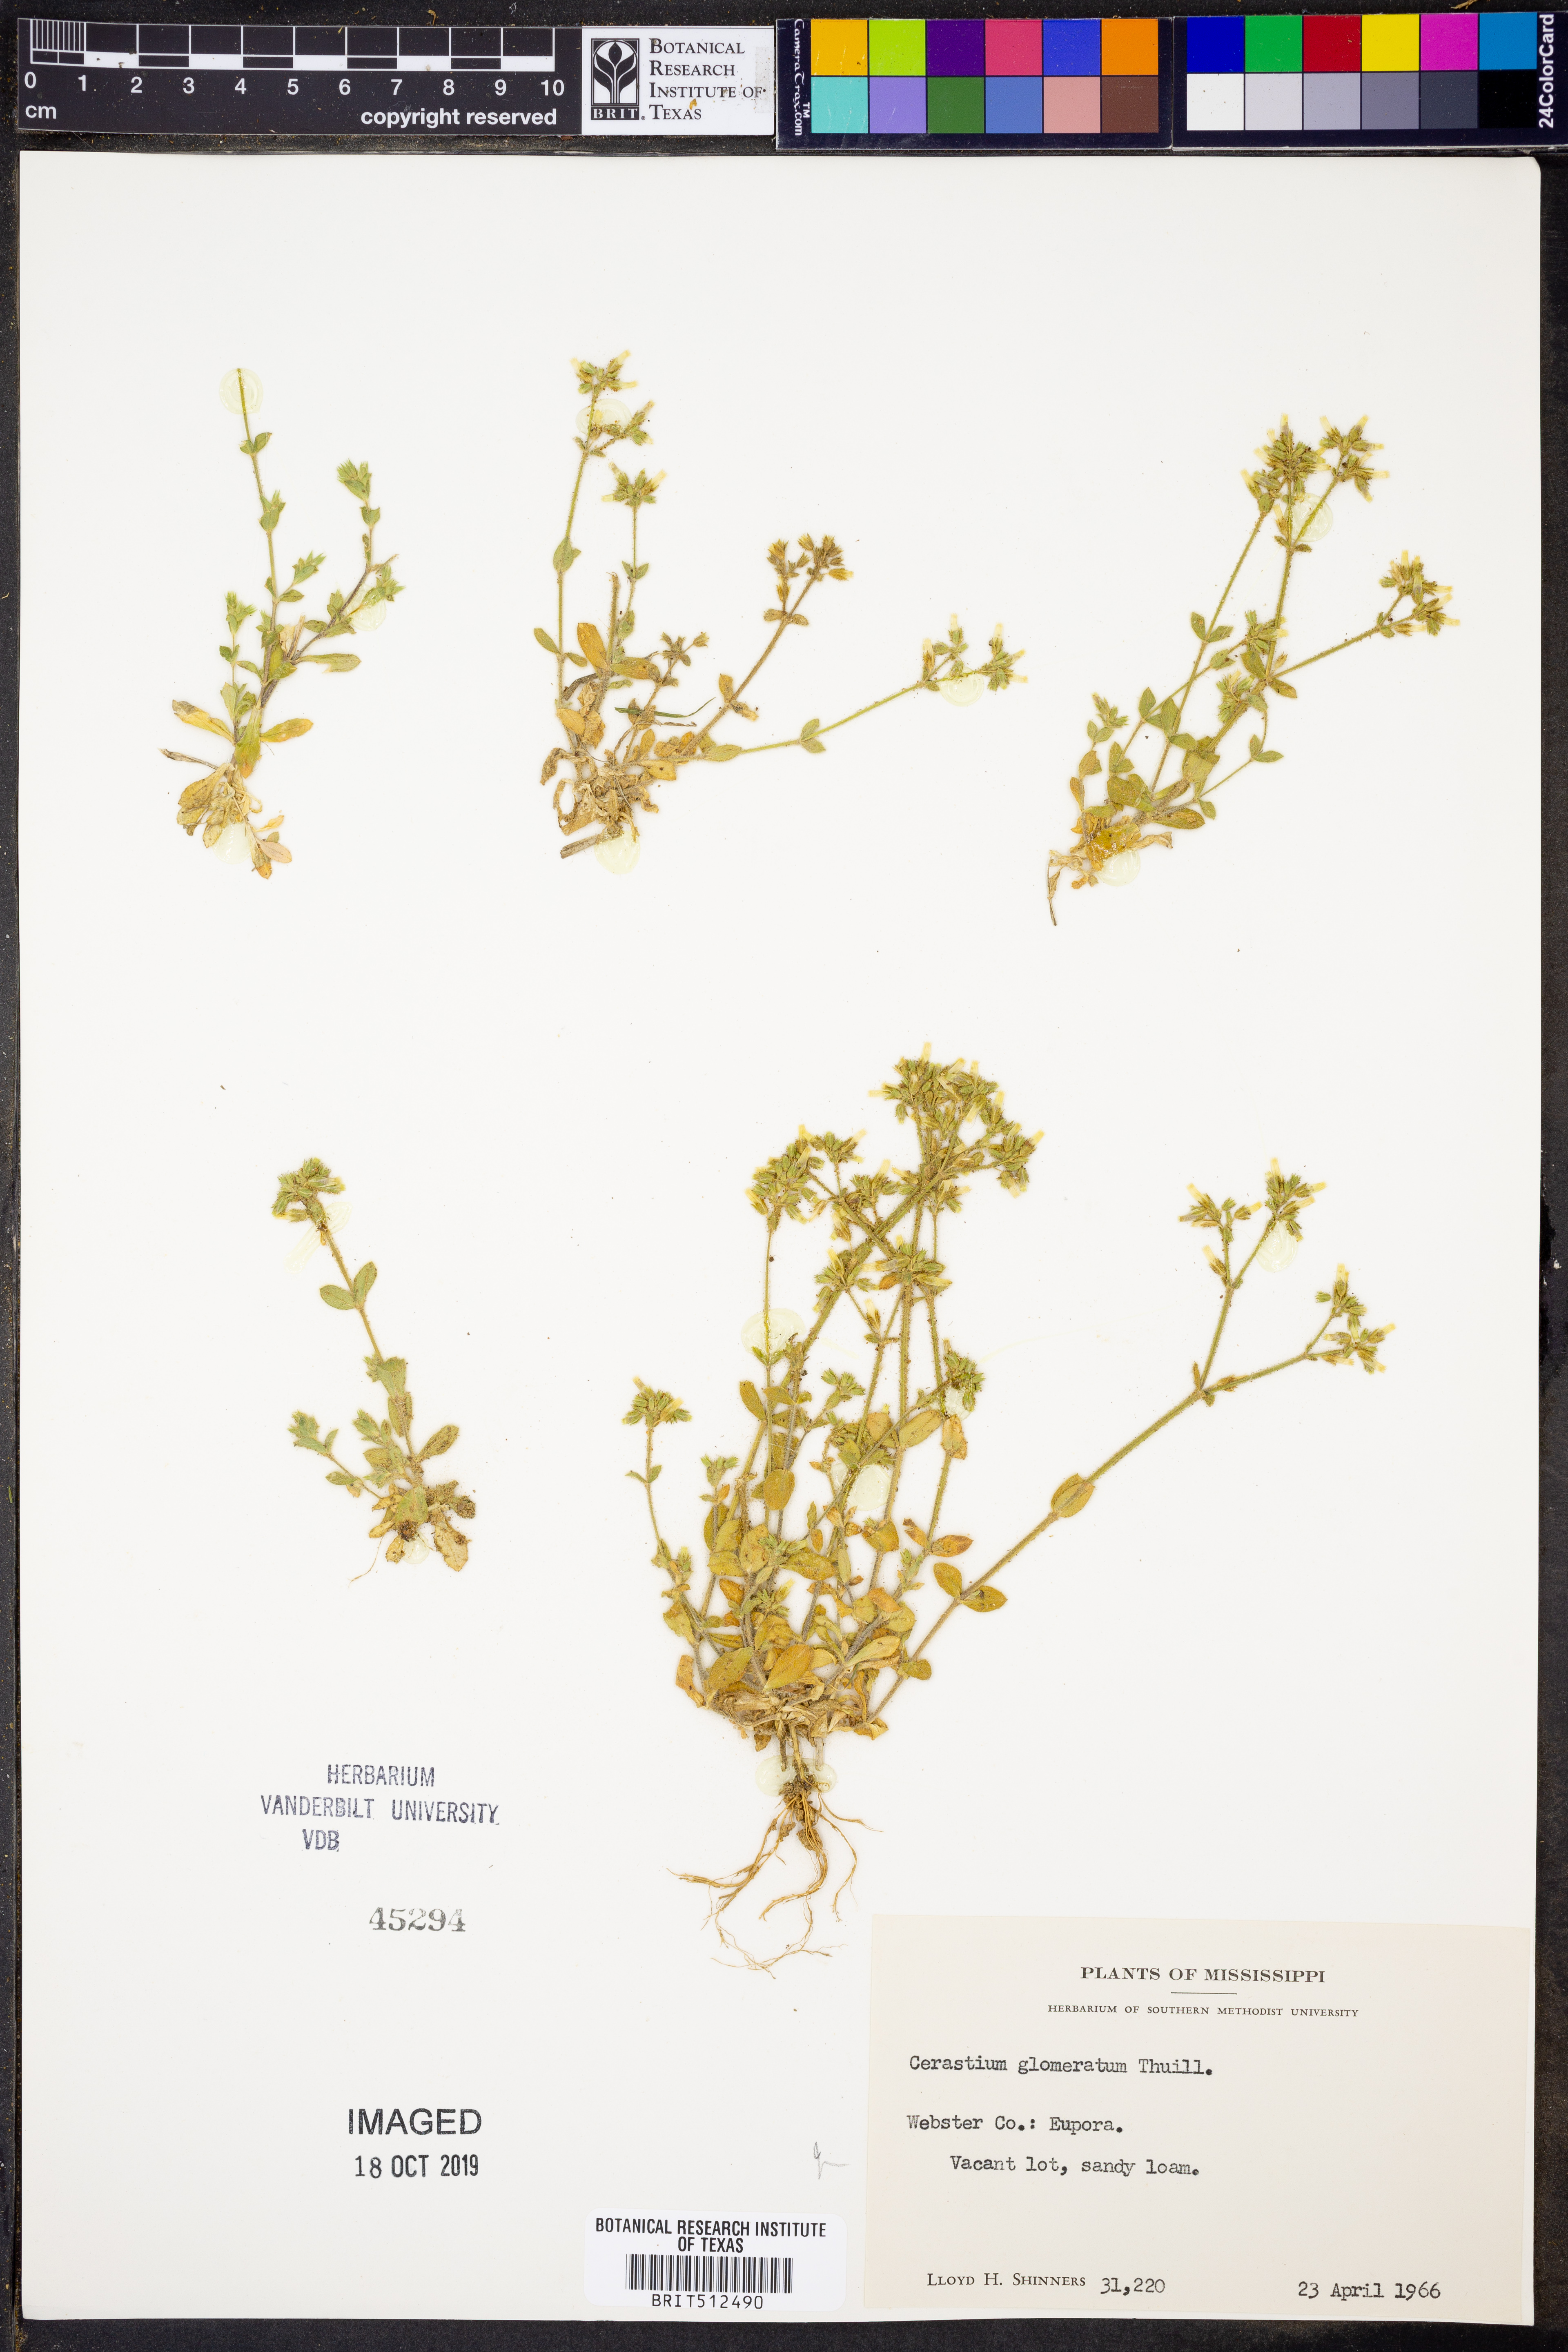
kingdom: Plantae
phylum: Tracheophyta
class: Magnoliopsida
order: Caryophyllales
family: Caryophyllaceae
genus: Cerastium
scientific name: Cerastium glomeratum
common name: Sticky chickweed
